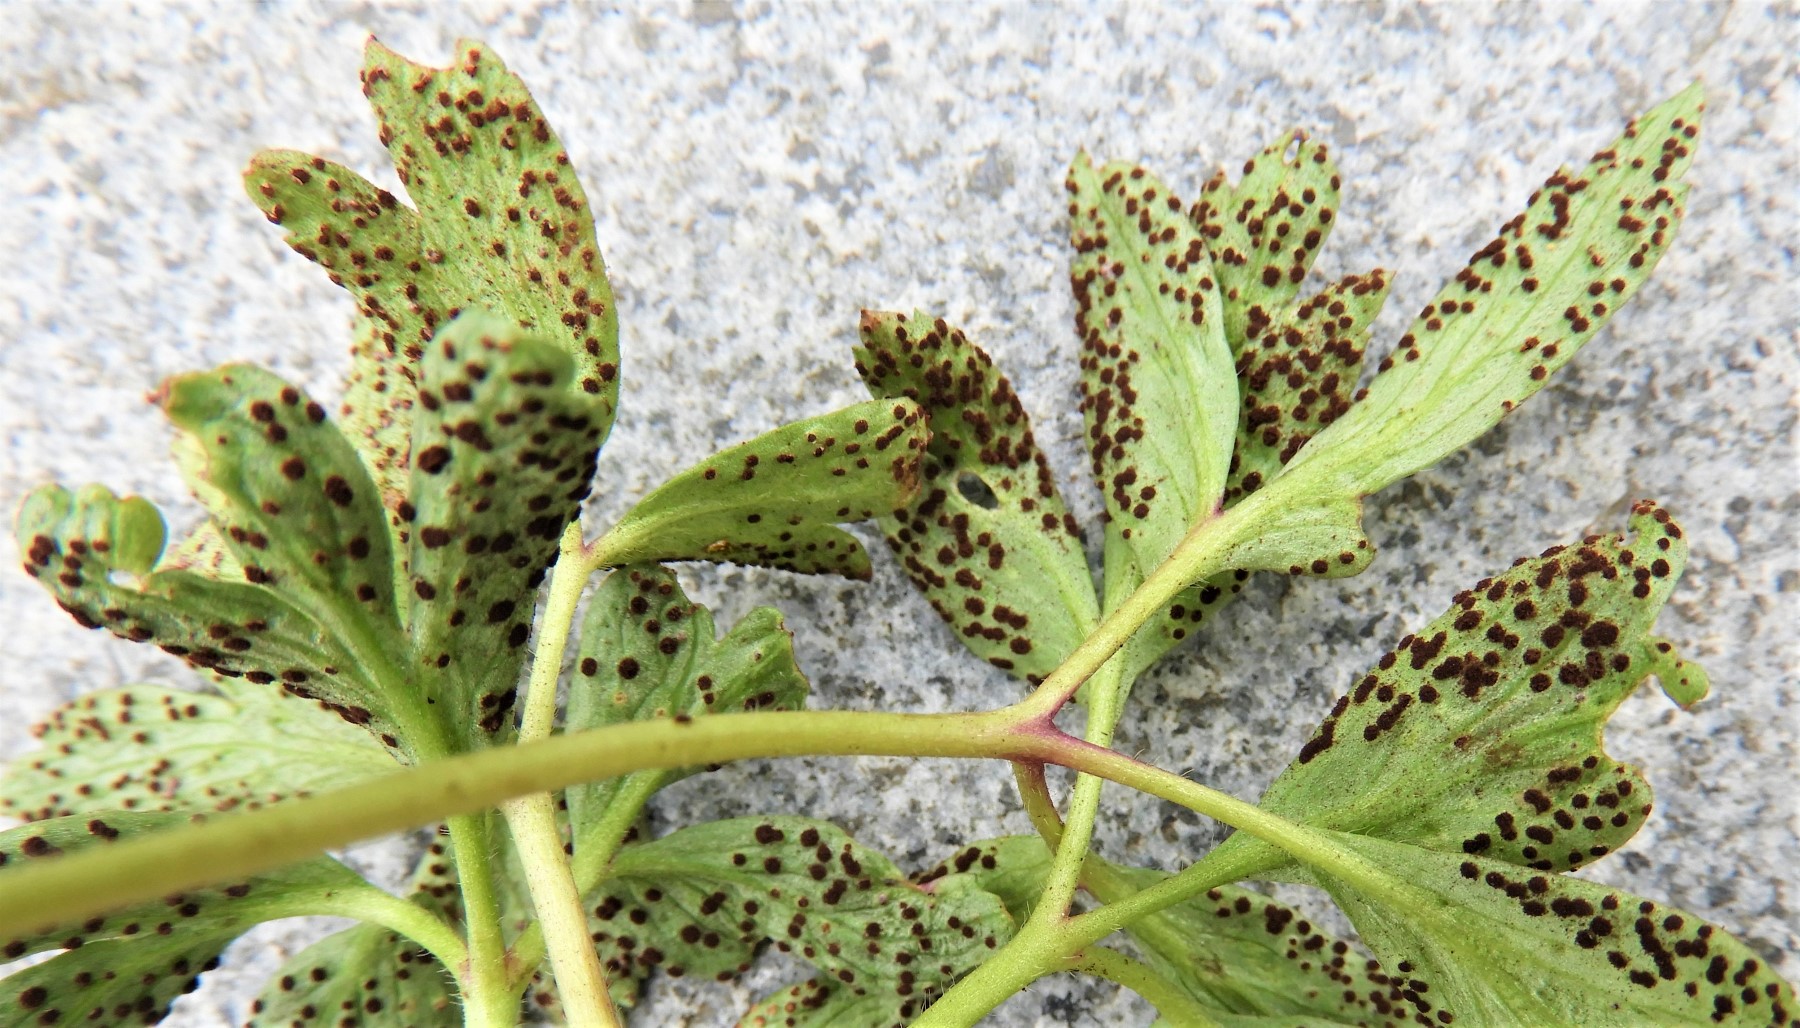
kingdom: Fungi
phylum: Basidiomycota
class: Pucciniomycetes
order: Pucciniales
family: Tranzscheliaceae
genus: Tranzschelia
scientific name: Tranzschelia anemones
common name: anemone-knæksporerust
